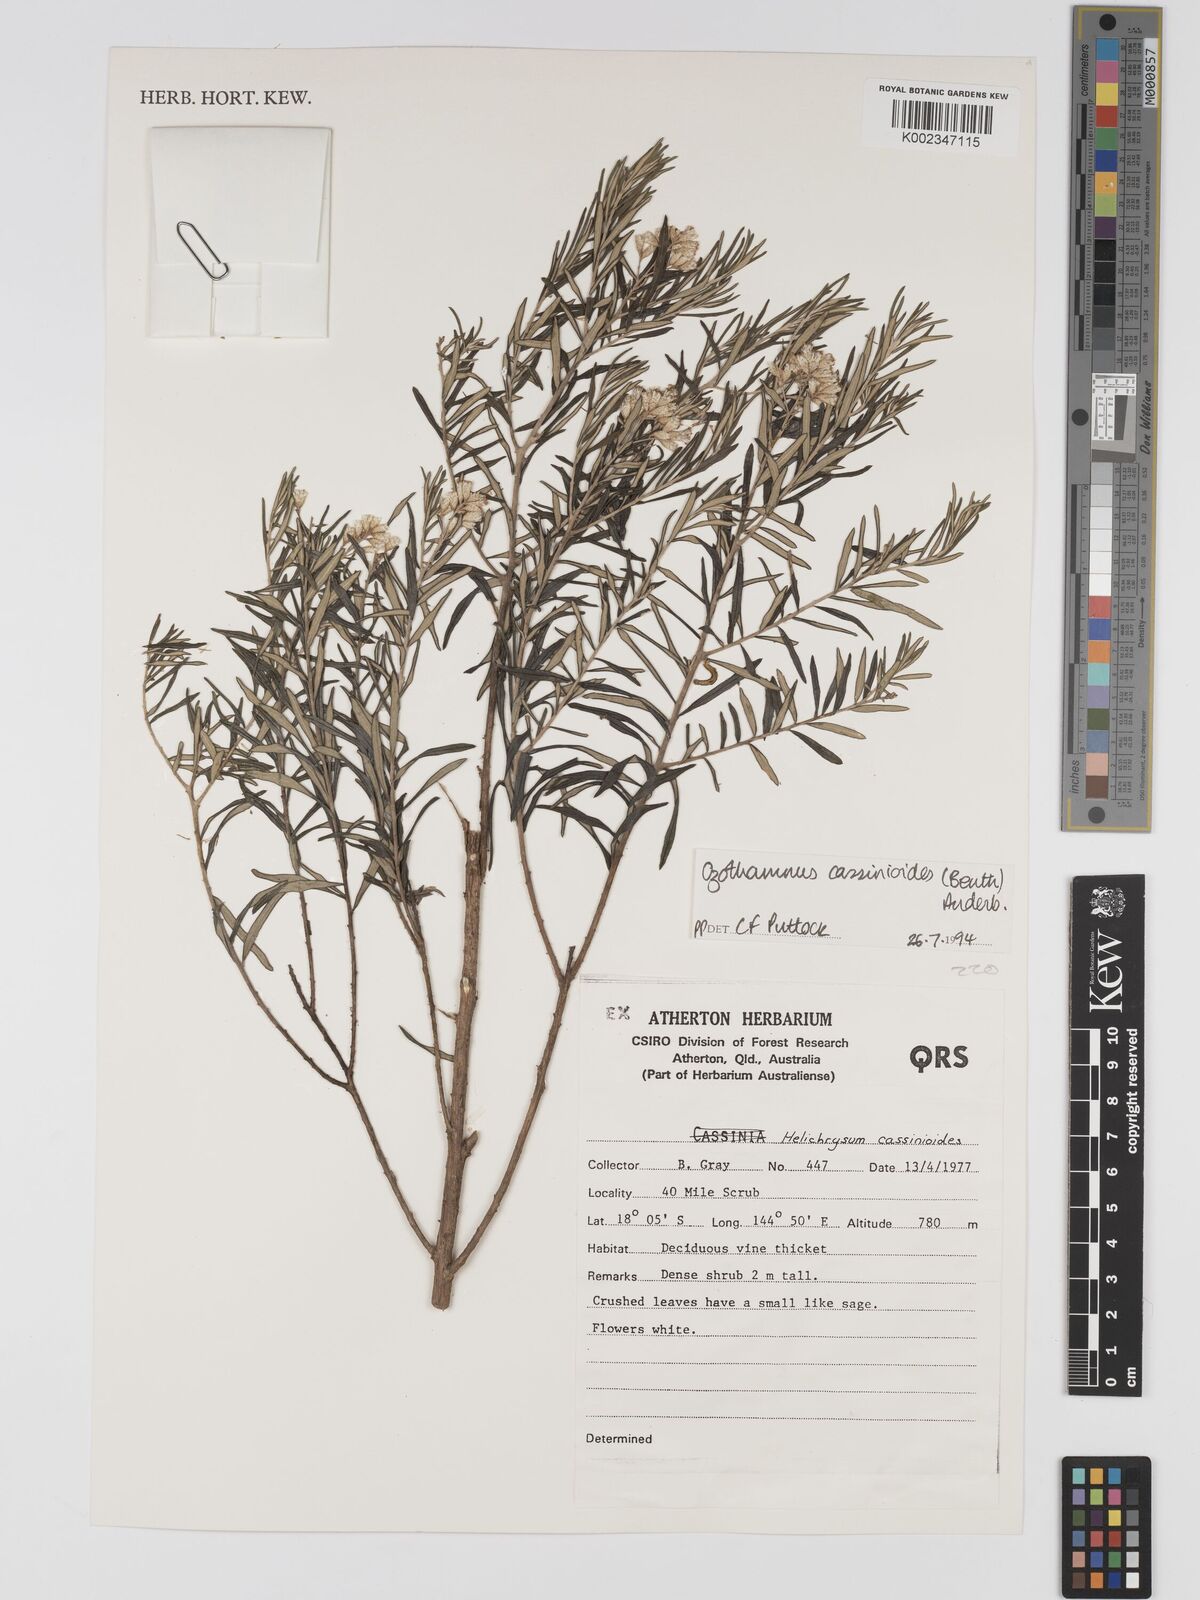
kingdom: Plantae
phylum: Tracheophyta
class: Magnoliopsida
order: Asterales
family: Asteraceae
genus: Ozothamnus
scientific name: Ozothamnus cassinioides
